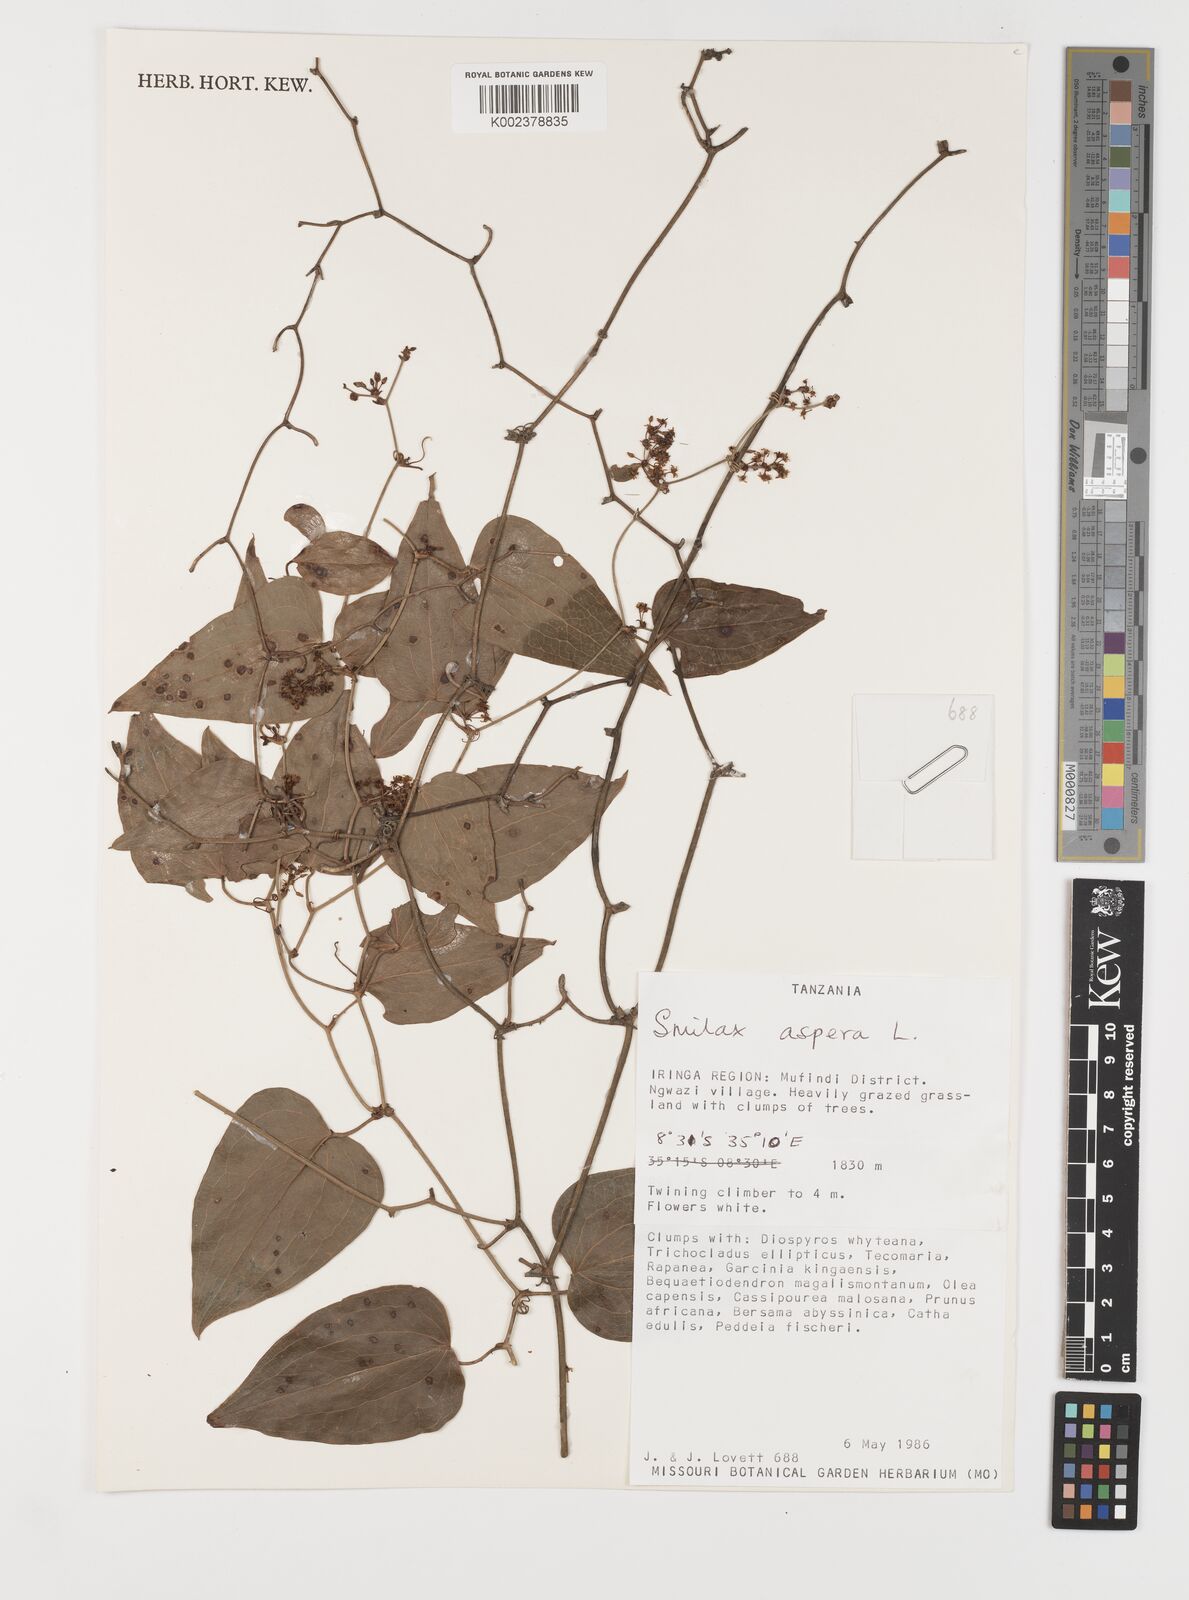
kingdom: Plantae
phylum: Tracheophyta
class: Liliopsida
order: Liliales
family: Smilacaceae
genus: Smilax
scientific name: Smilax aspera
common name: Common smilax
